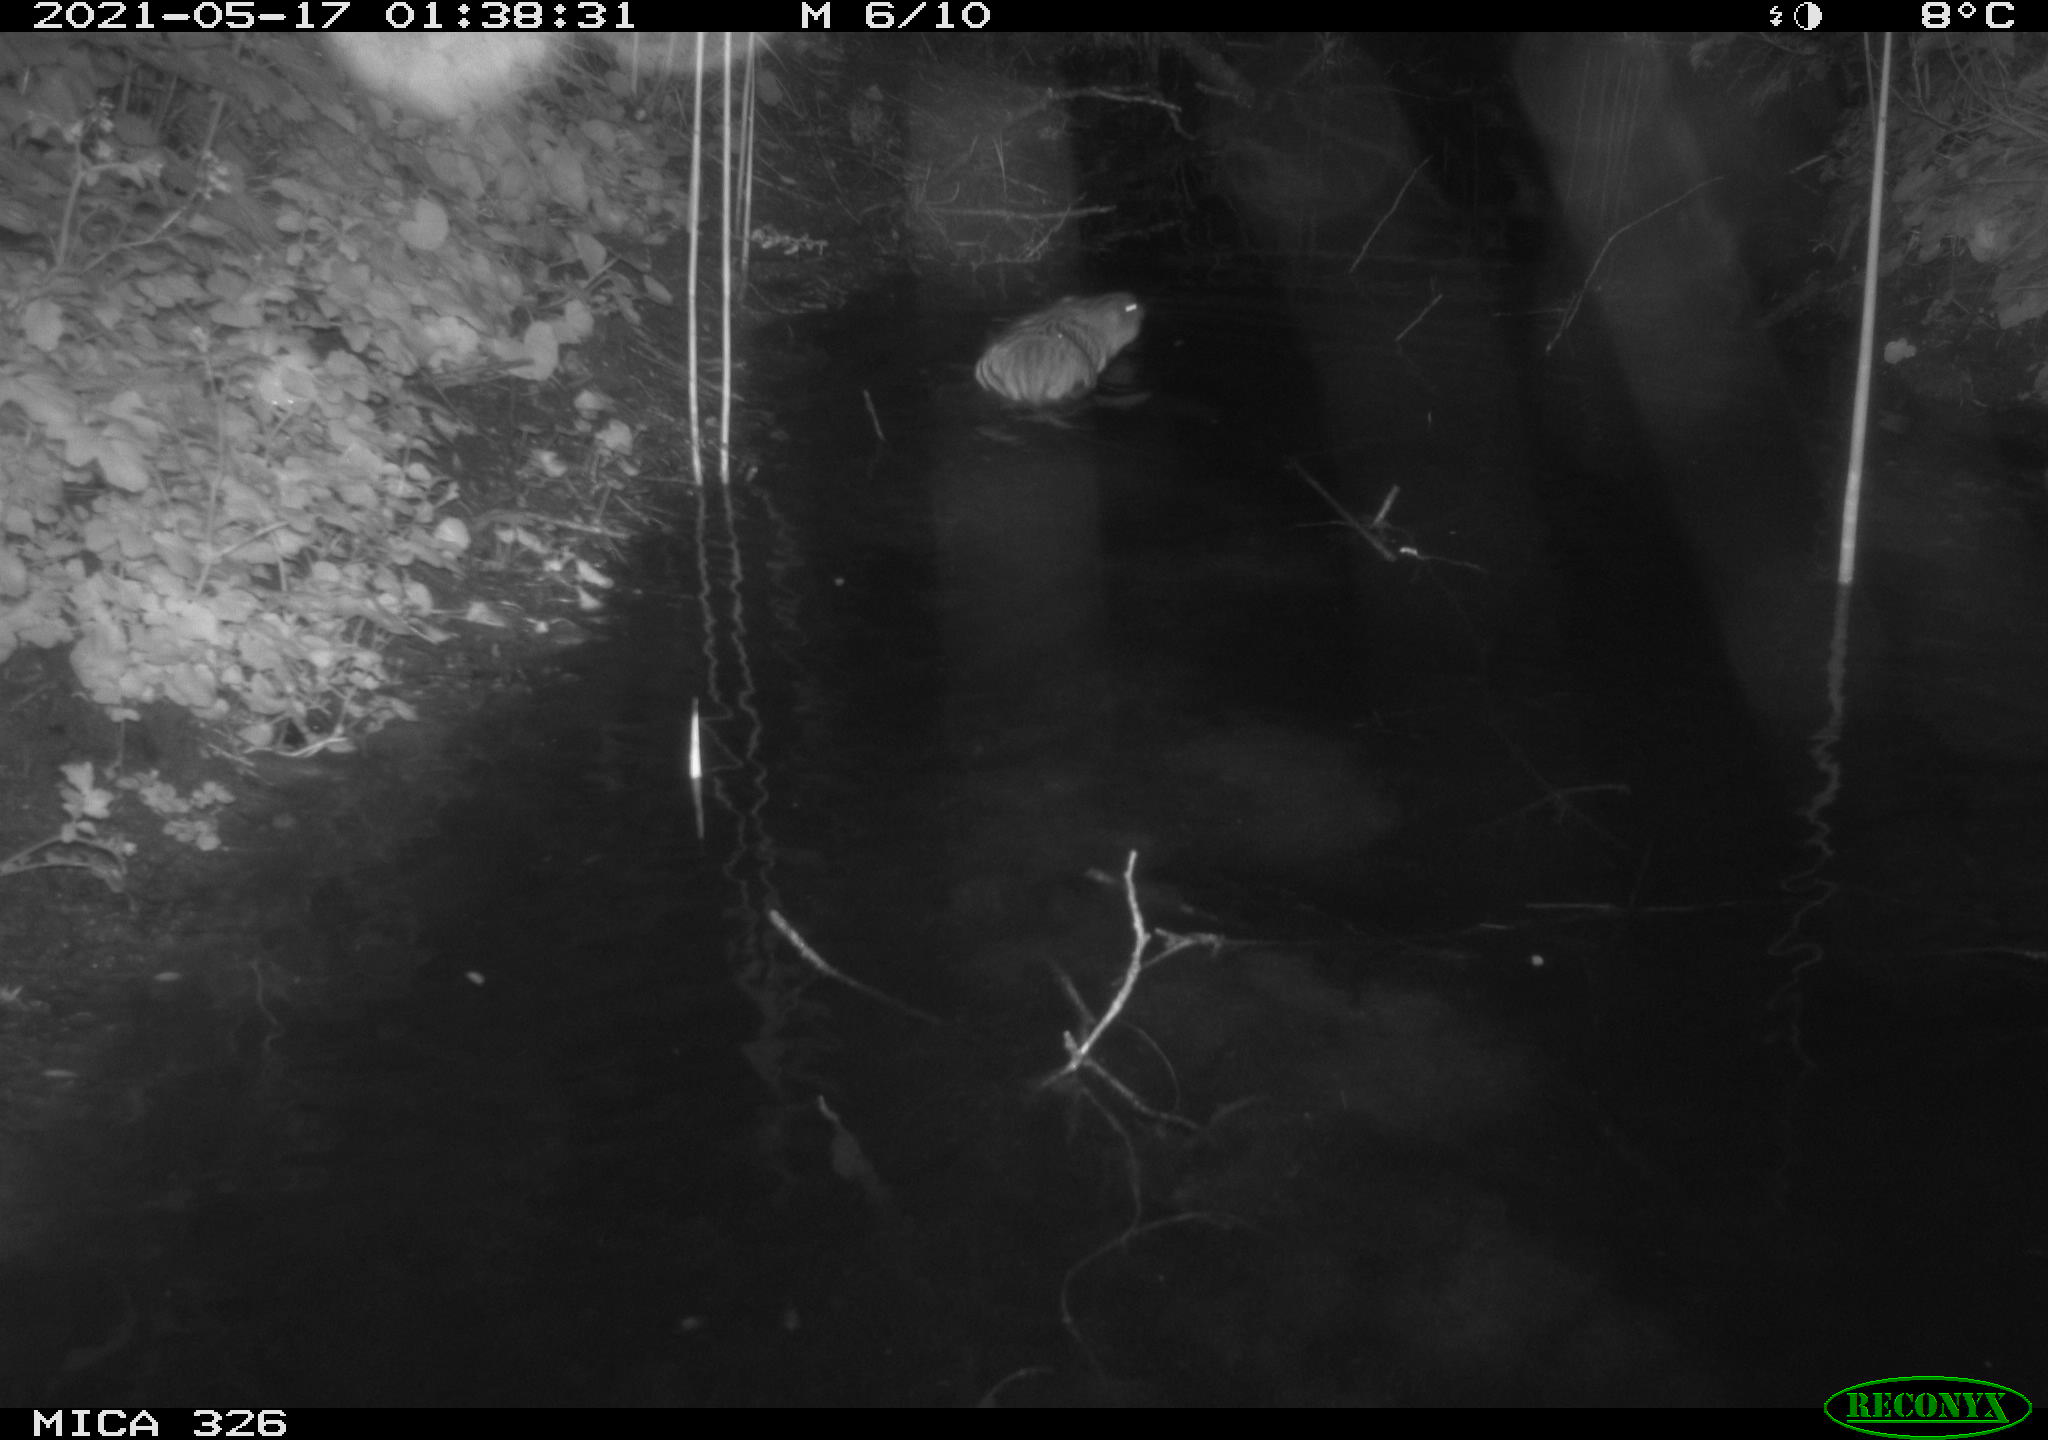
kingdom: Animalia
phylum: Chordata
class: Mammalia
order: Rodentia
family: Cricetidae
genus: Ondatra
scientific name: Ondatra zibethicus
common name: Muskrat
